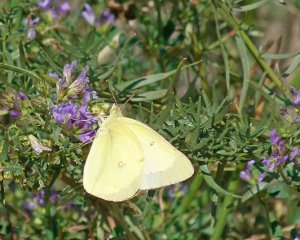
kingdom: Animalia
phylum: Arthropoda
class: Insecta
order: Lepidoptera
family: Pieridae
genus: Colias
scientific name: Colias philodice
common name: Clouded Sulphur
